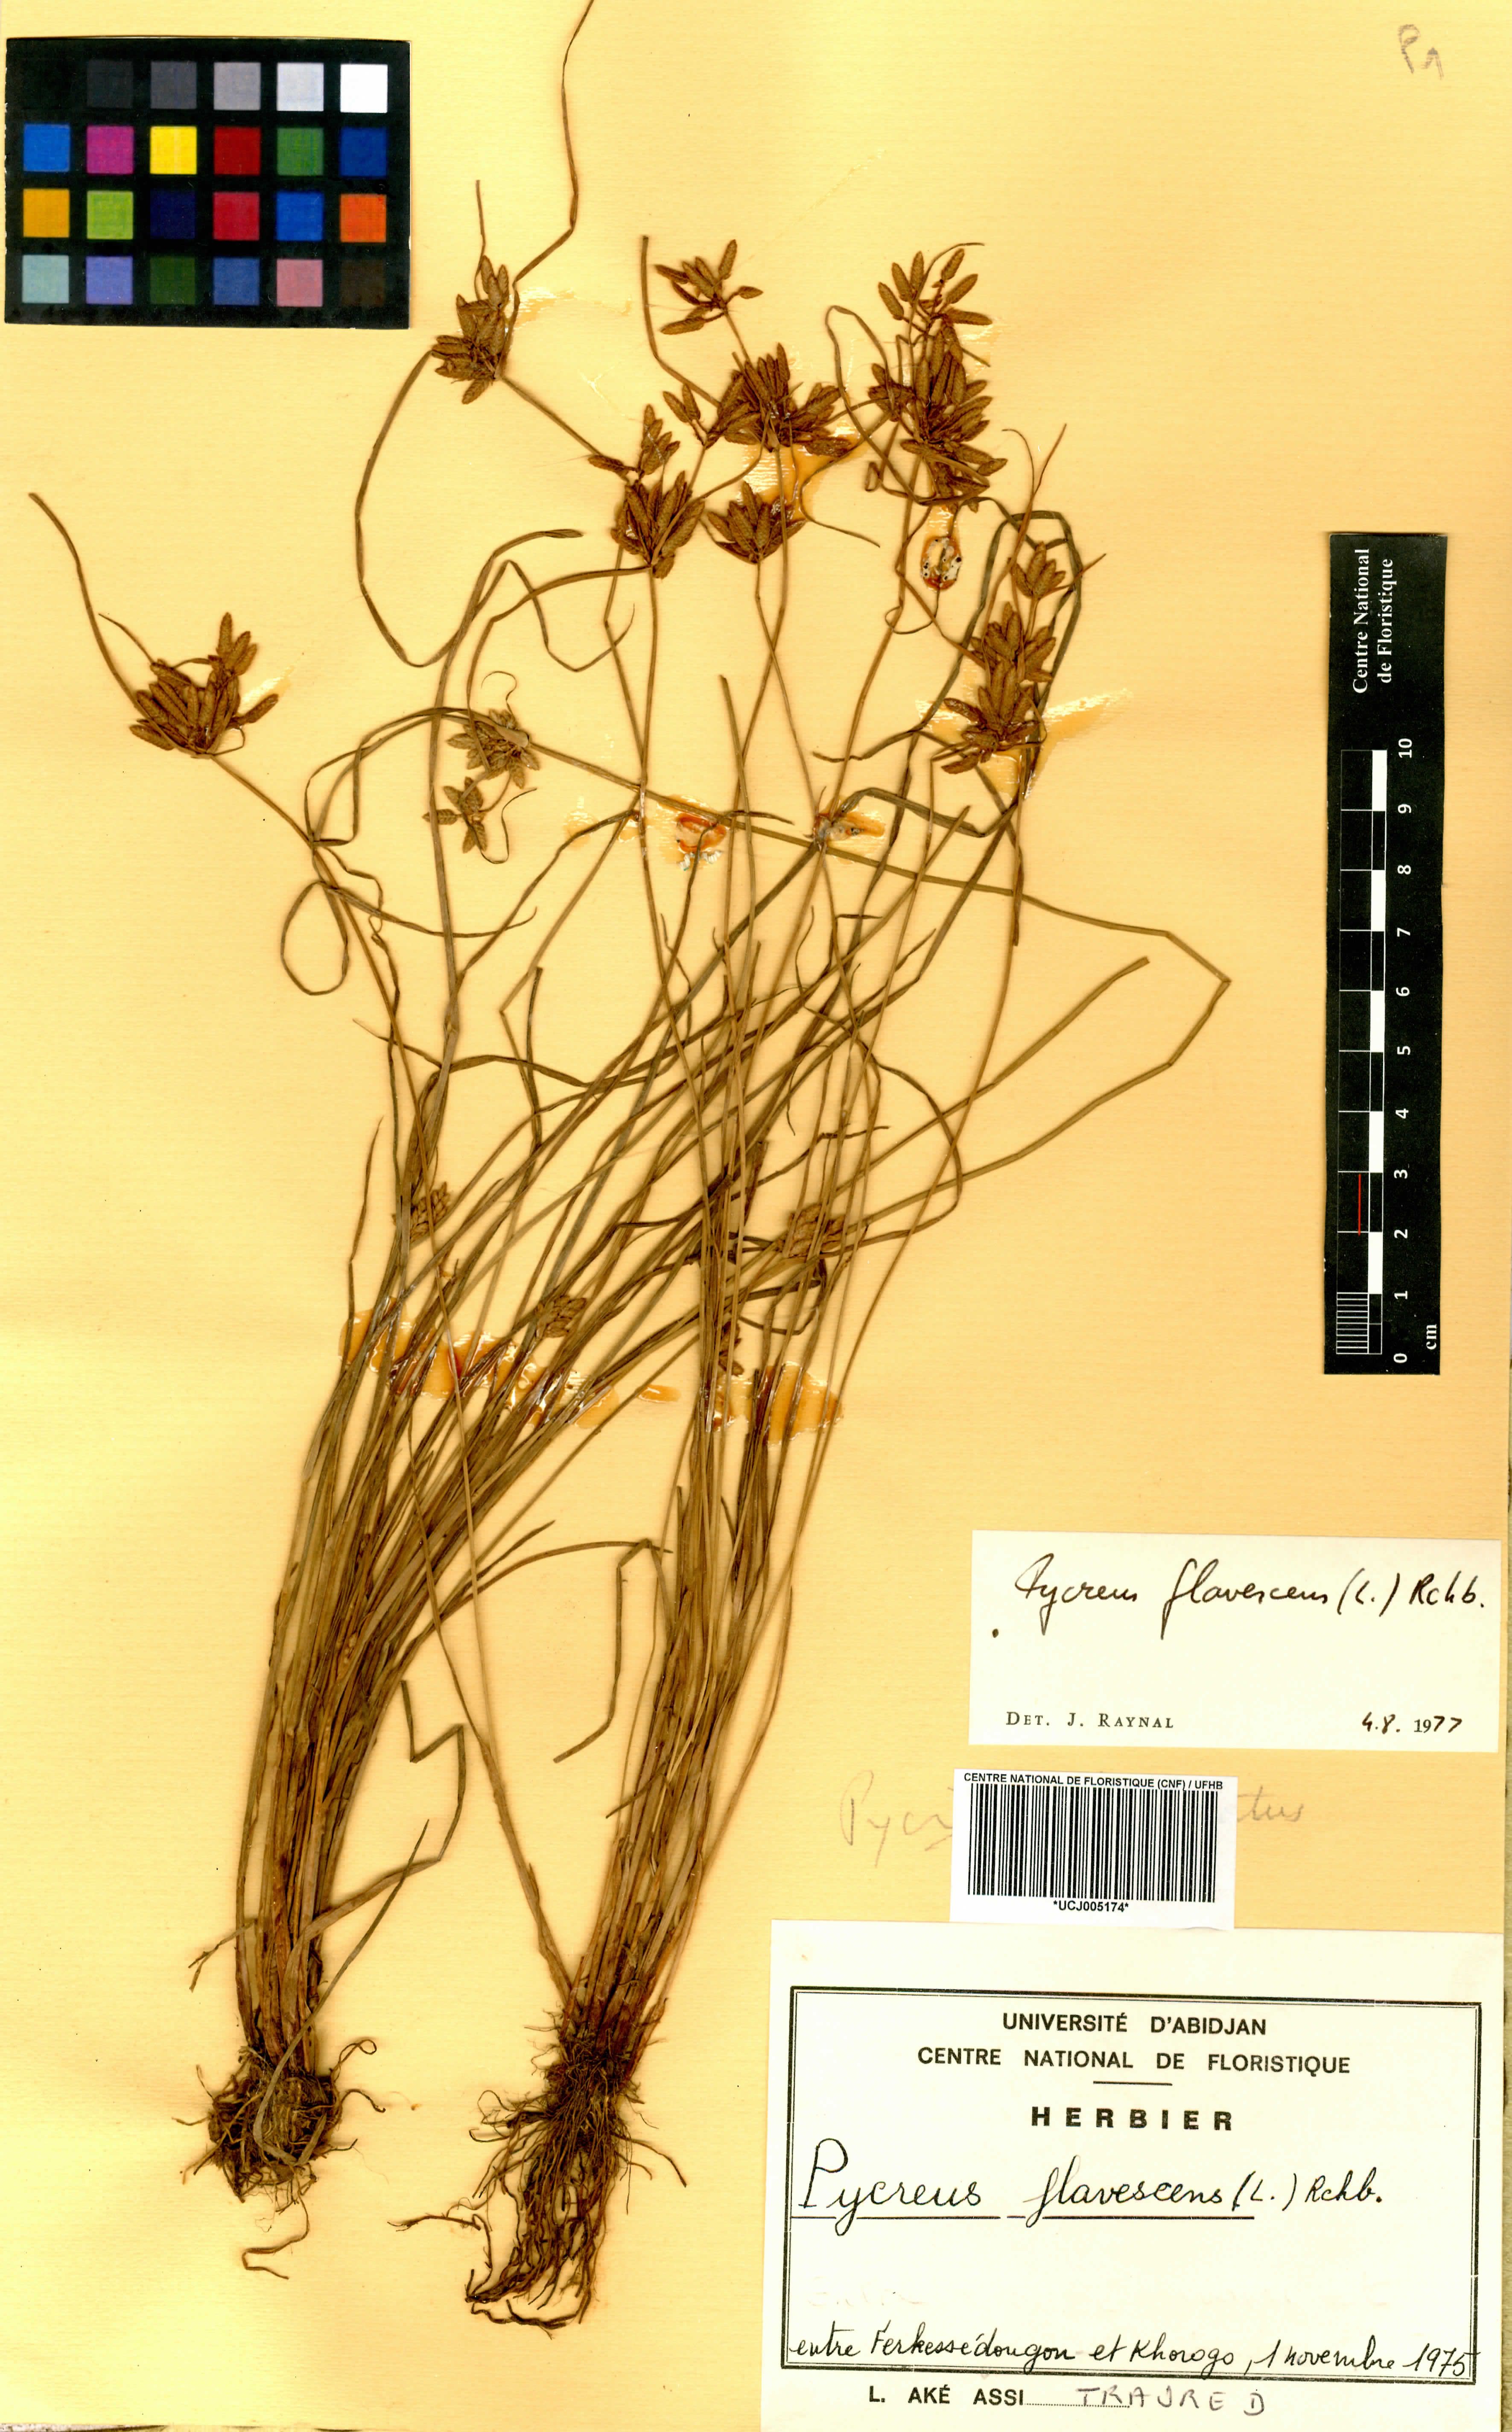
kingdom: Plantae
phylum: Tracheophyta
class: Liliopsida
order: Poales
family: Cyperaceae
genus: Cyperus
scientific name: Cyperus flavescens
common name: Yellow galingale
